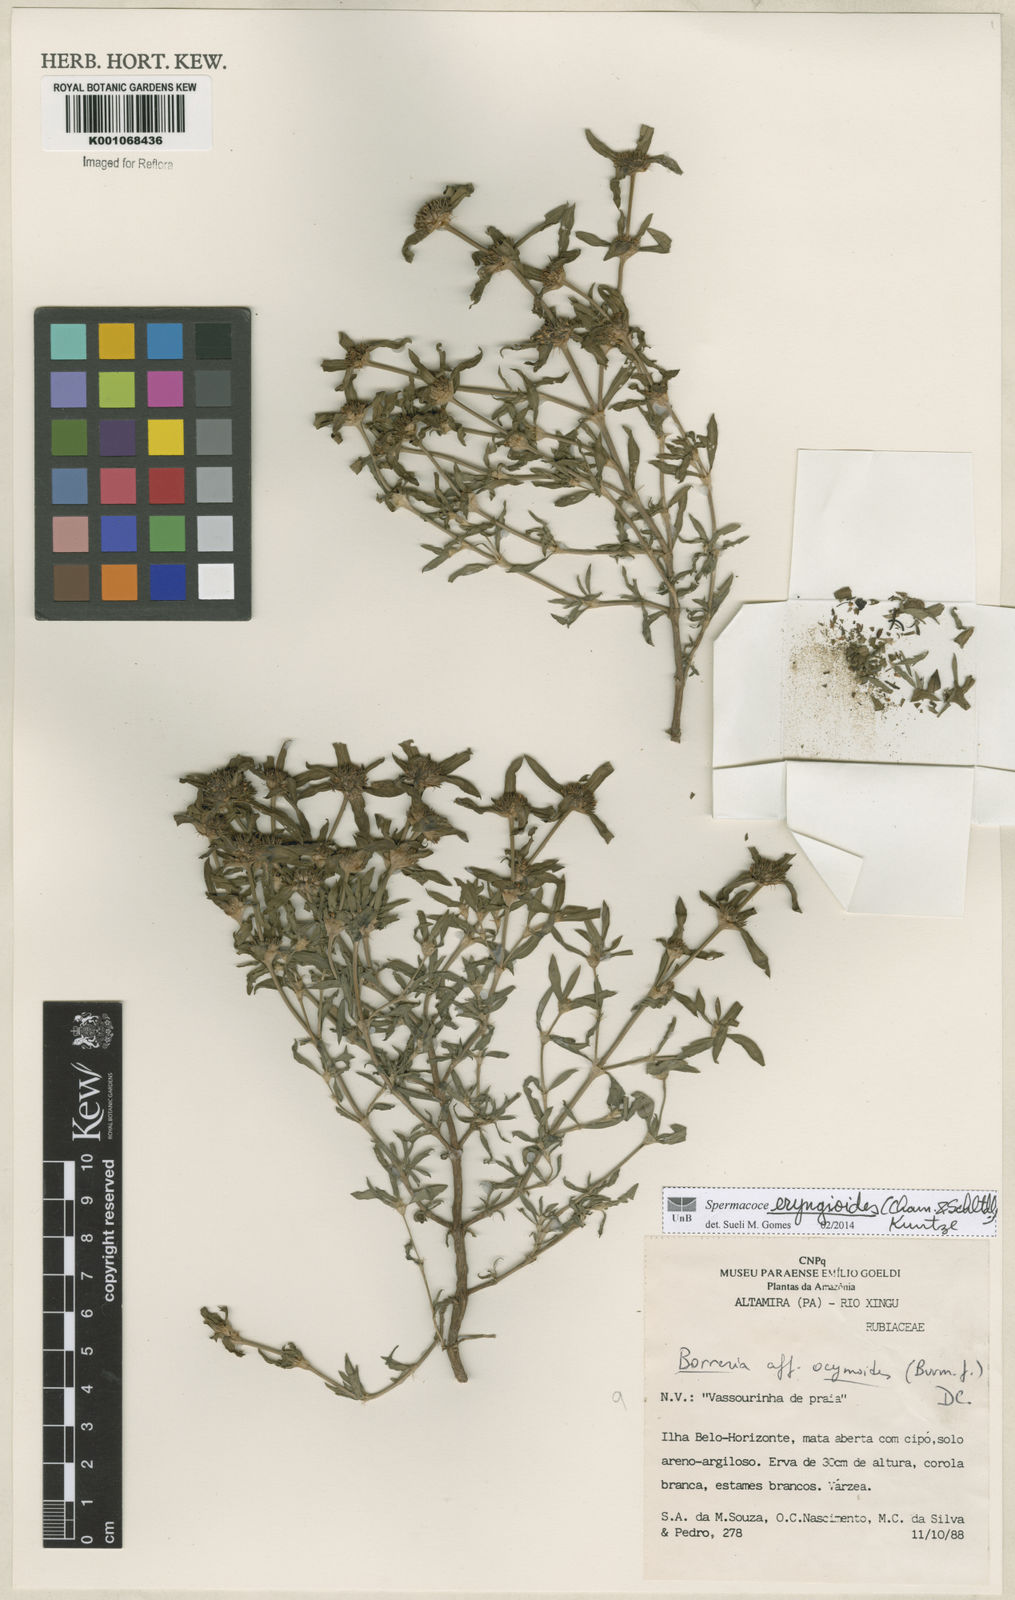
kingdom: Plantae
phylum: Tracheophyta
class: Magnoliopsida
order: Gentianales
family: Rubiaceae
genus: Spermacoce
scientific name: Spermacoce eryngioides
